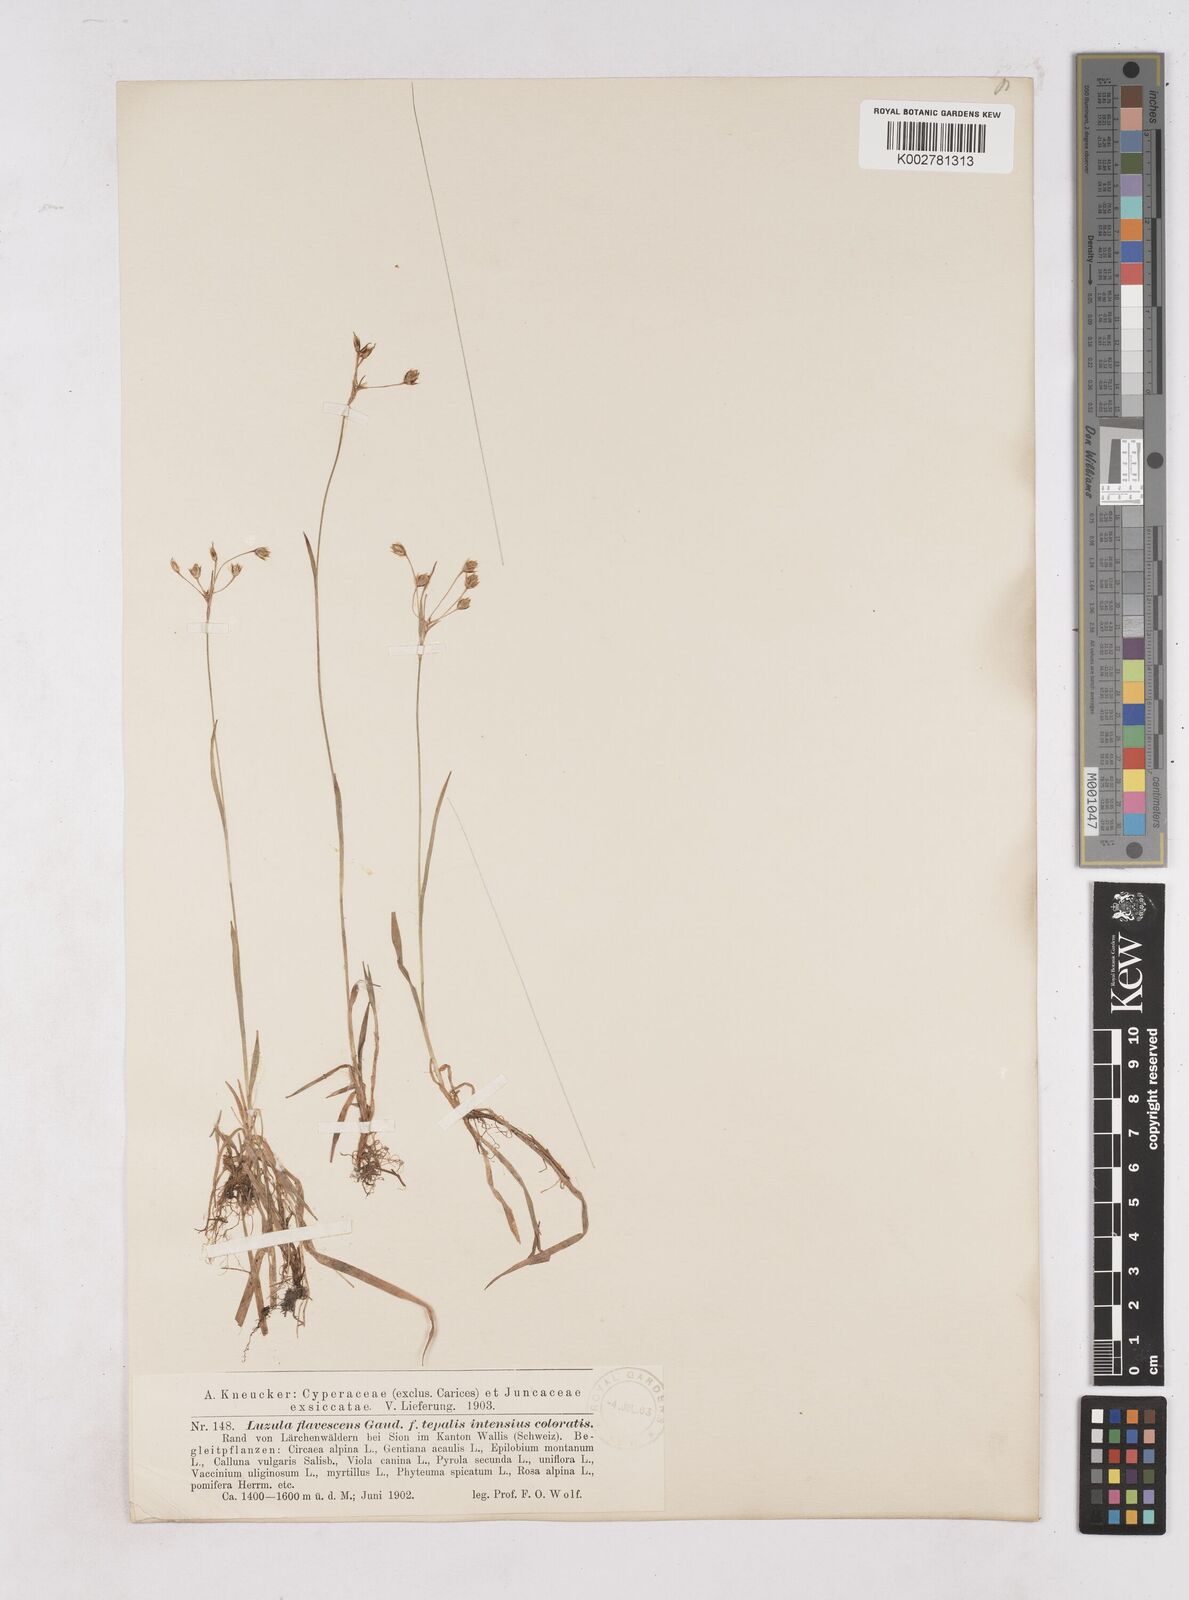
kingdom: Plantae
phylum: Tracheophyta
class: Liliopsida
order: Poales
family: Juncaceae
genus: Luzula
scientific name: Luzula luzulina
